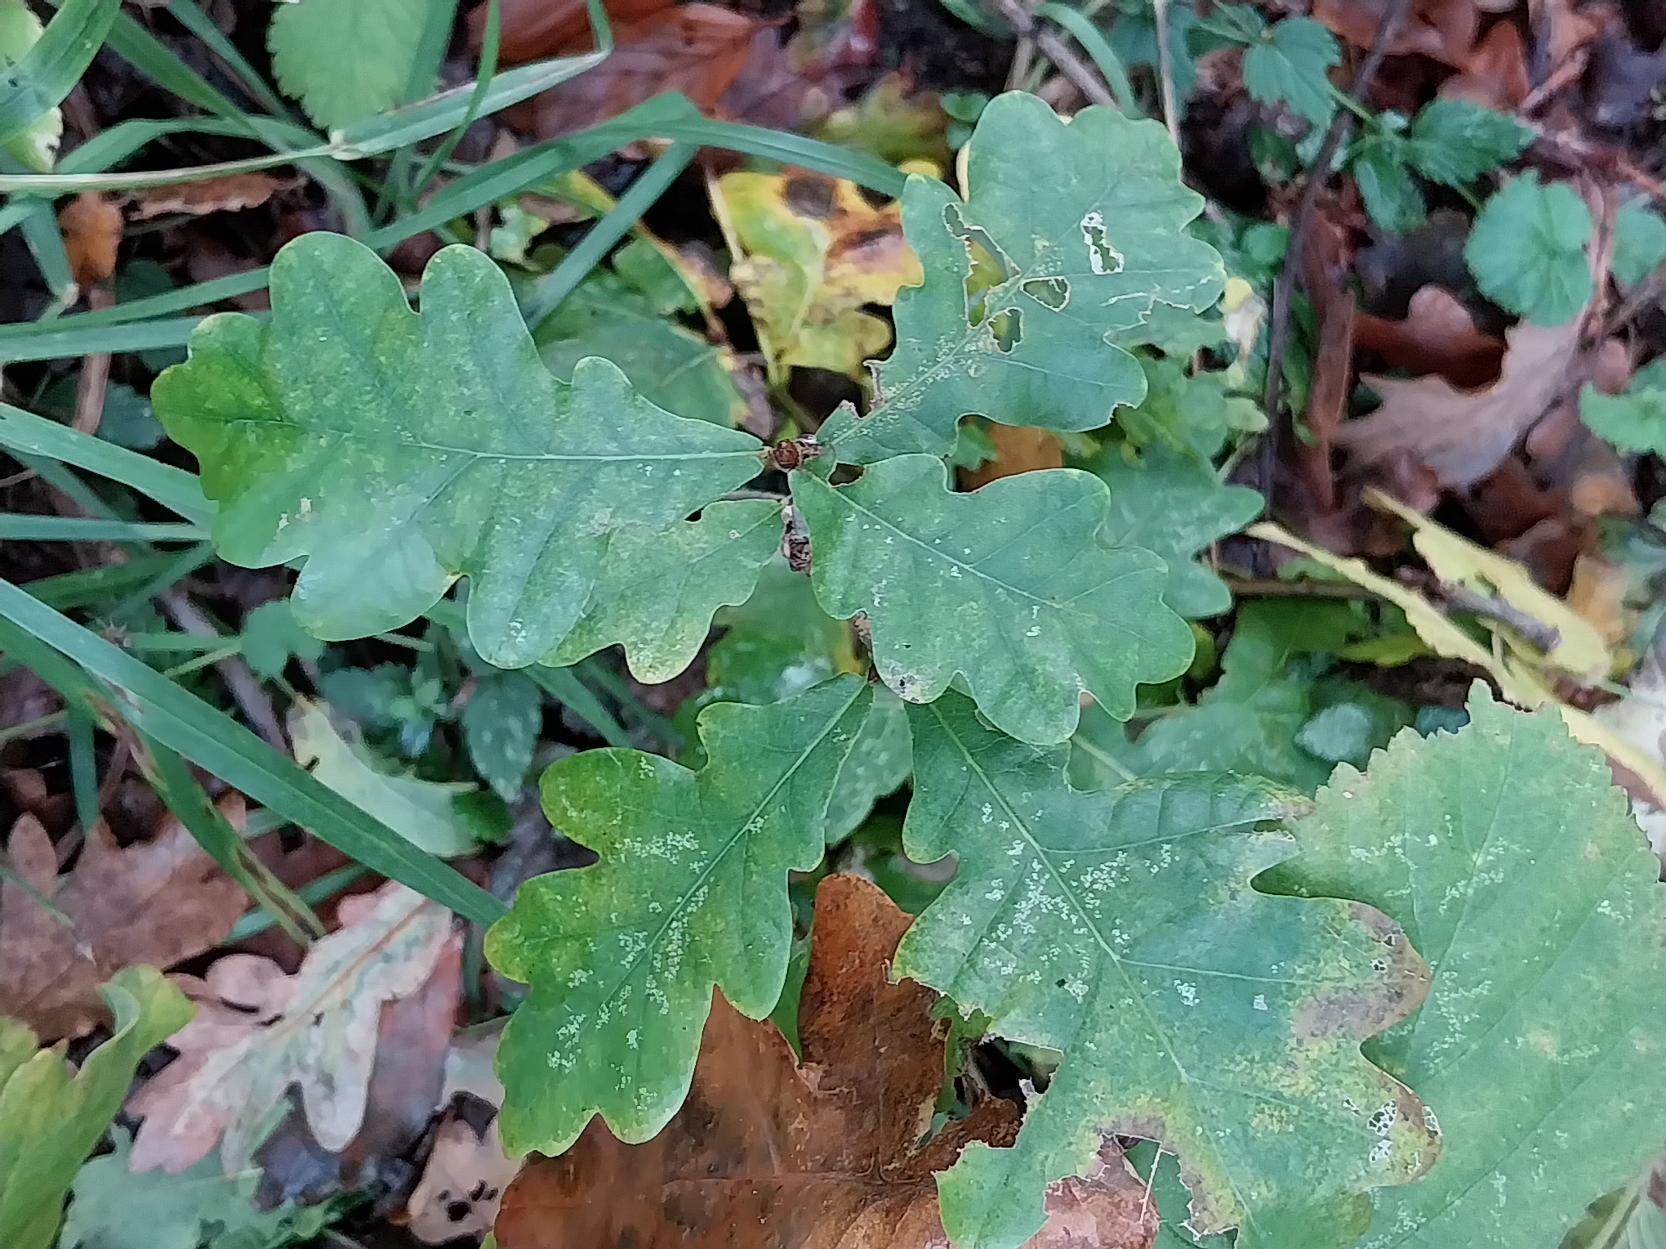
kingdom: Plantae
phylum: Tracheophyta
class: Magnoliopsida
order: Fagales
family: Fagaceae
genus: Quercus
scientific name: Quercus robur
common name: Stilk-eg/almindelig eg
